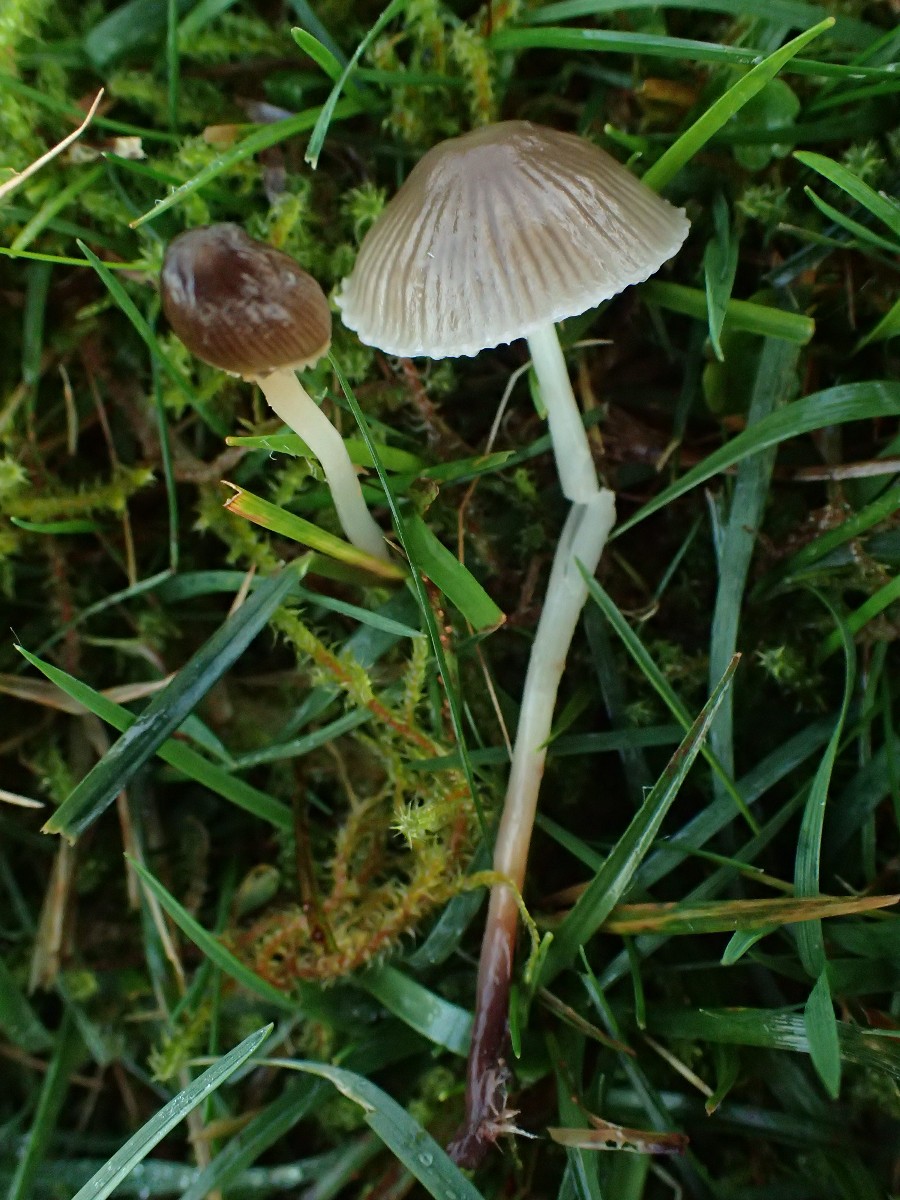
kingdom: Fungi
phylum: Basidiomycota
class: Agaricomycetes
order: Agaricales
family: Mycenaceae
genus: Mycena
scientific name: Mycena epipterygia
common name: gulstokket huesvamp
